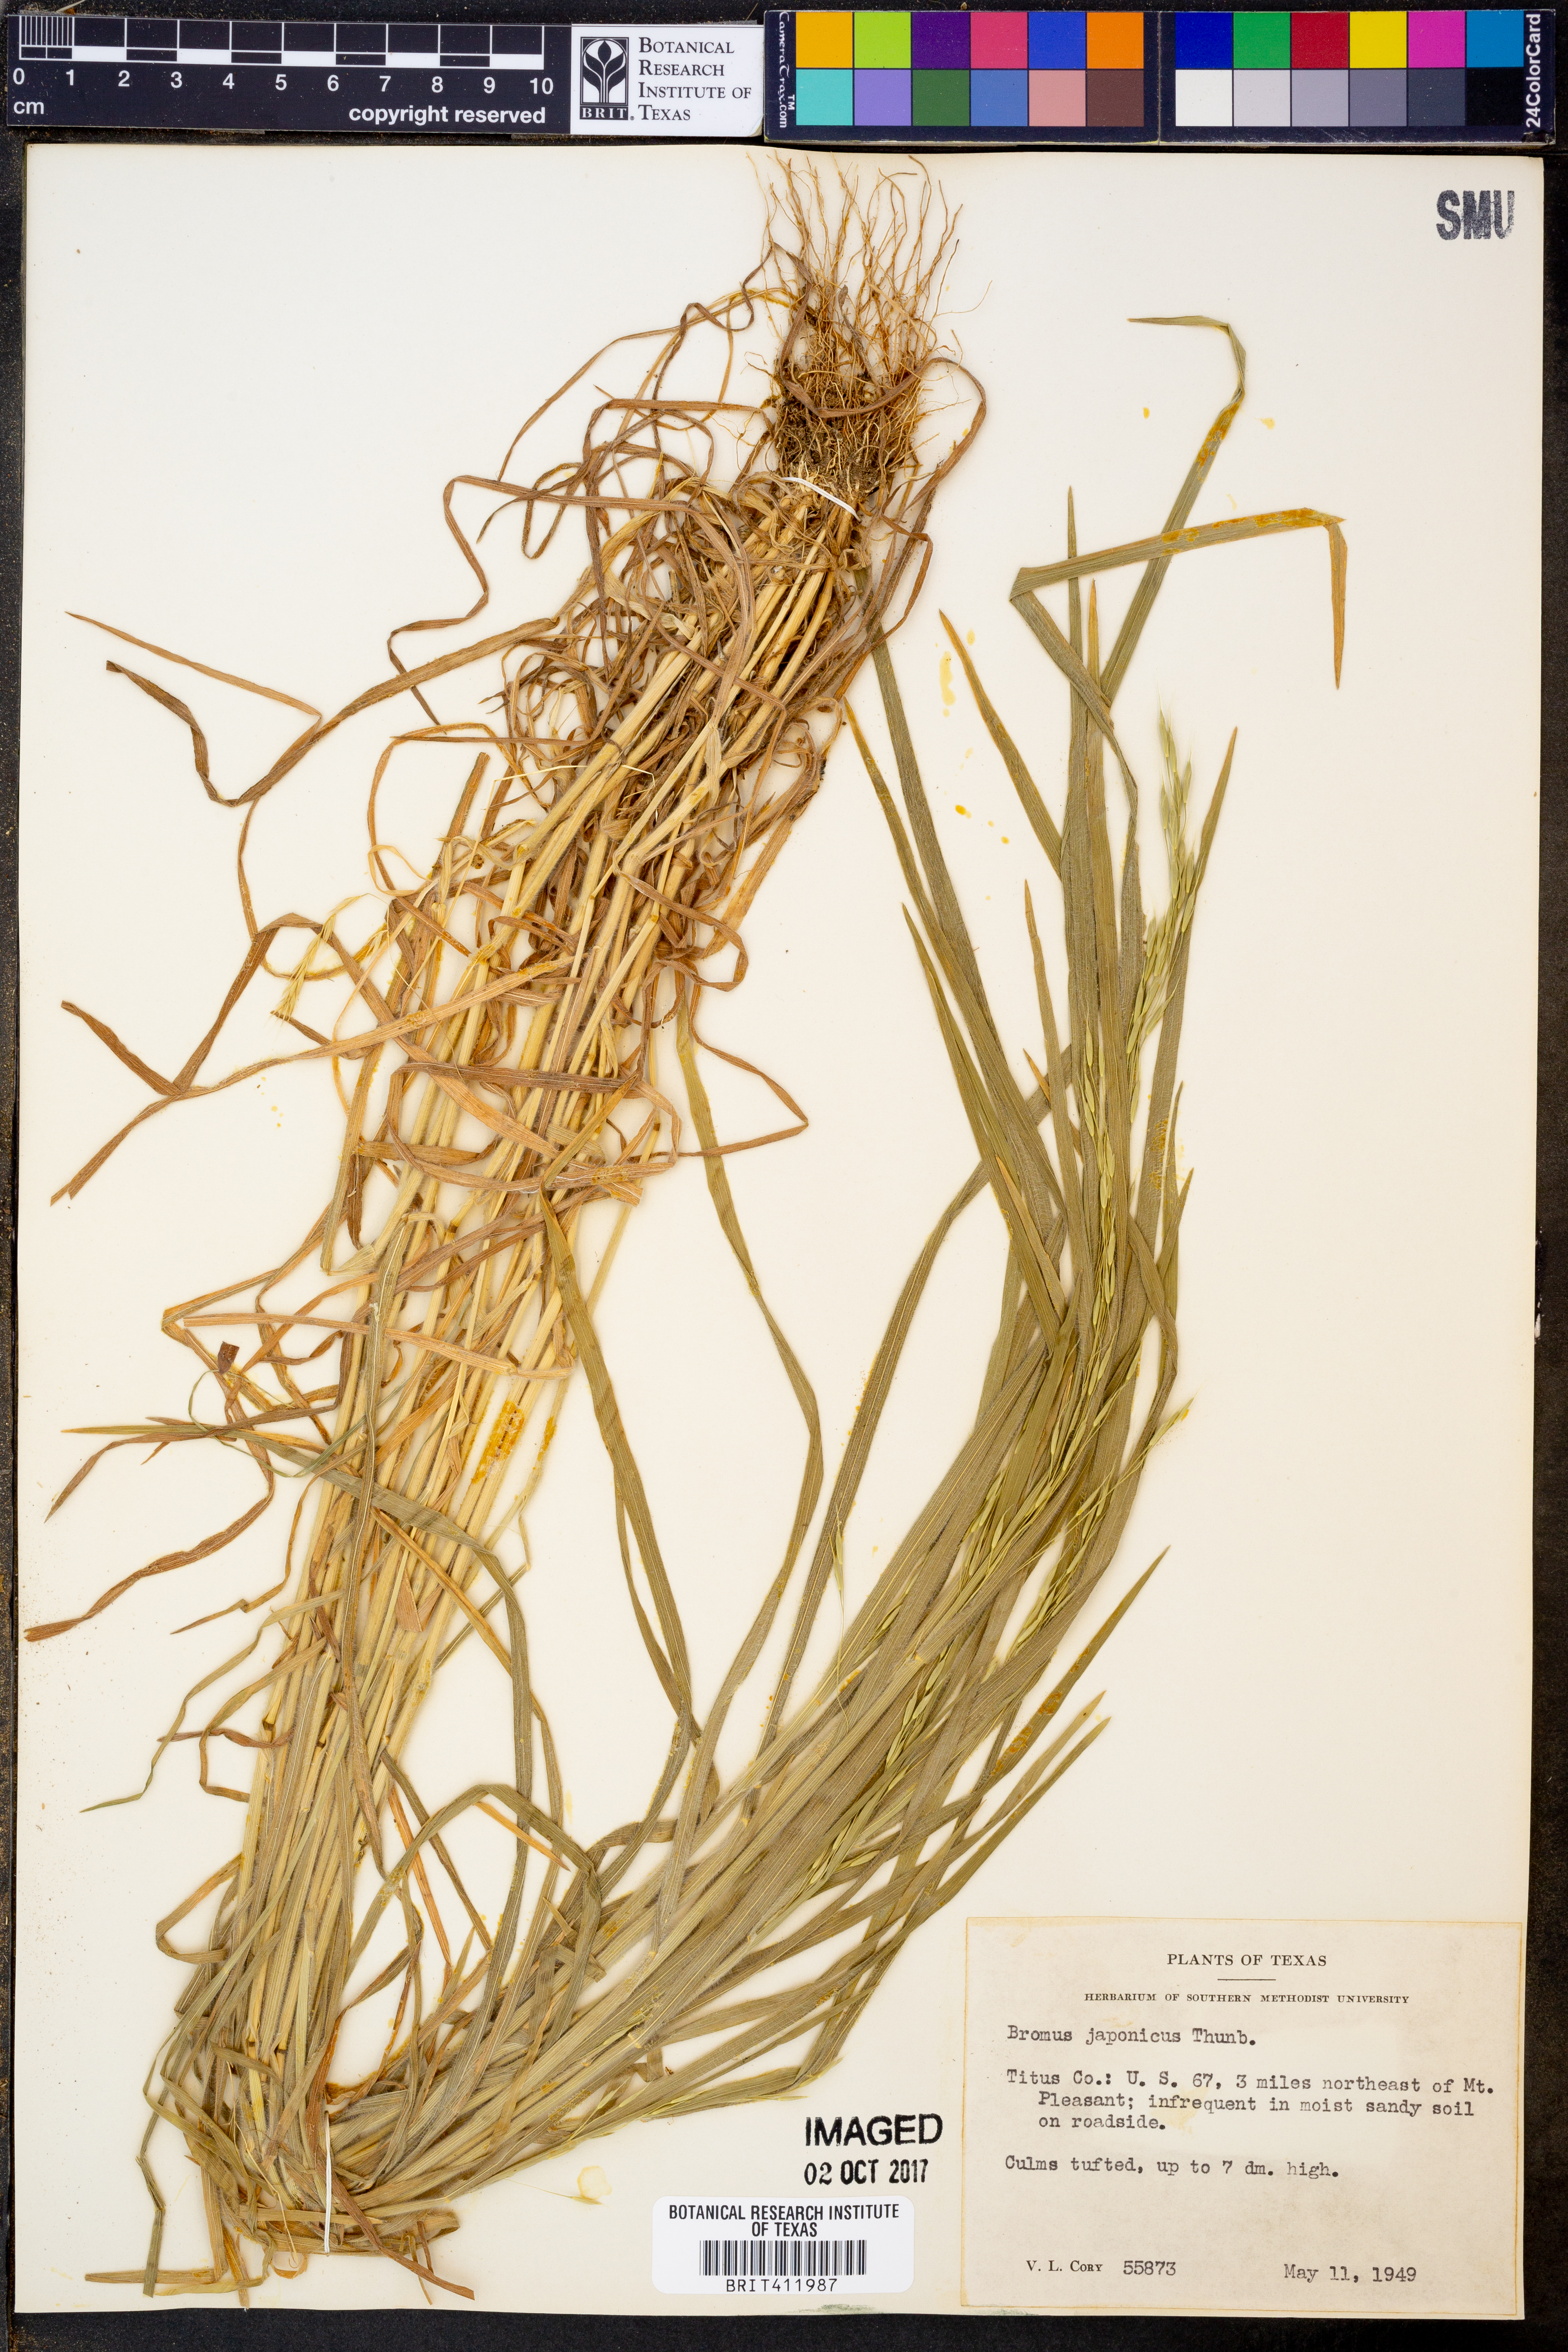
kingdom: Plantae
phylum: Tracheophyta
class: Liliopsida
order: Poales
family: Poaceae
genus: Bromus
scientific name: Bromus japonicus
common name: Japanese brome
